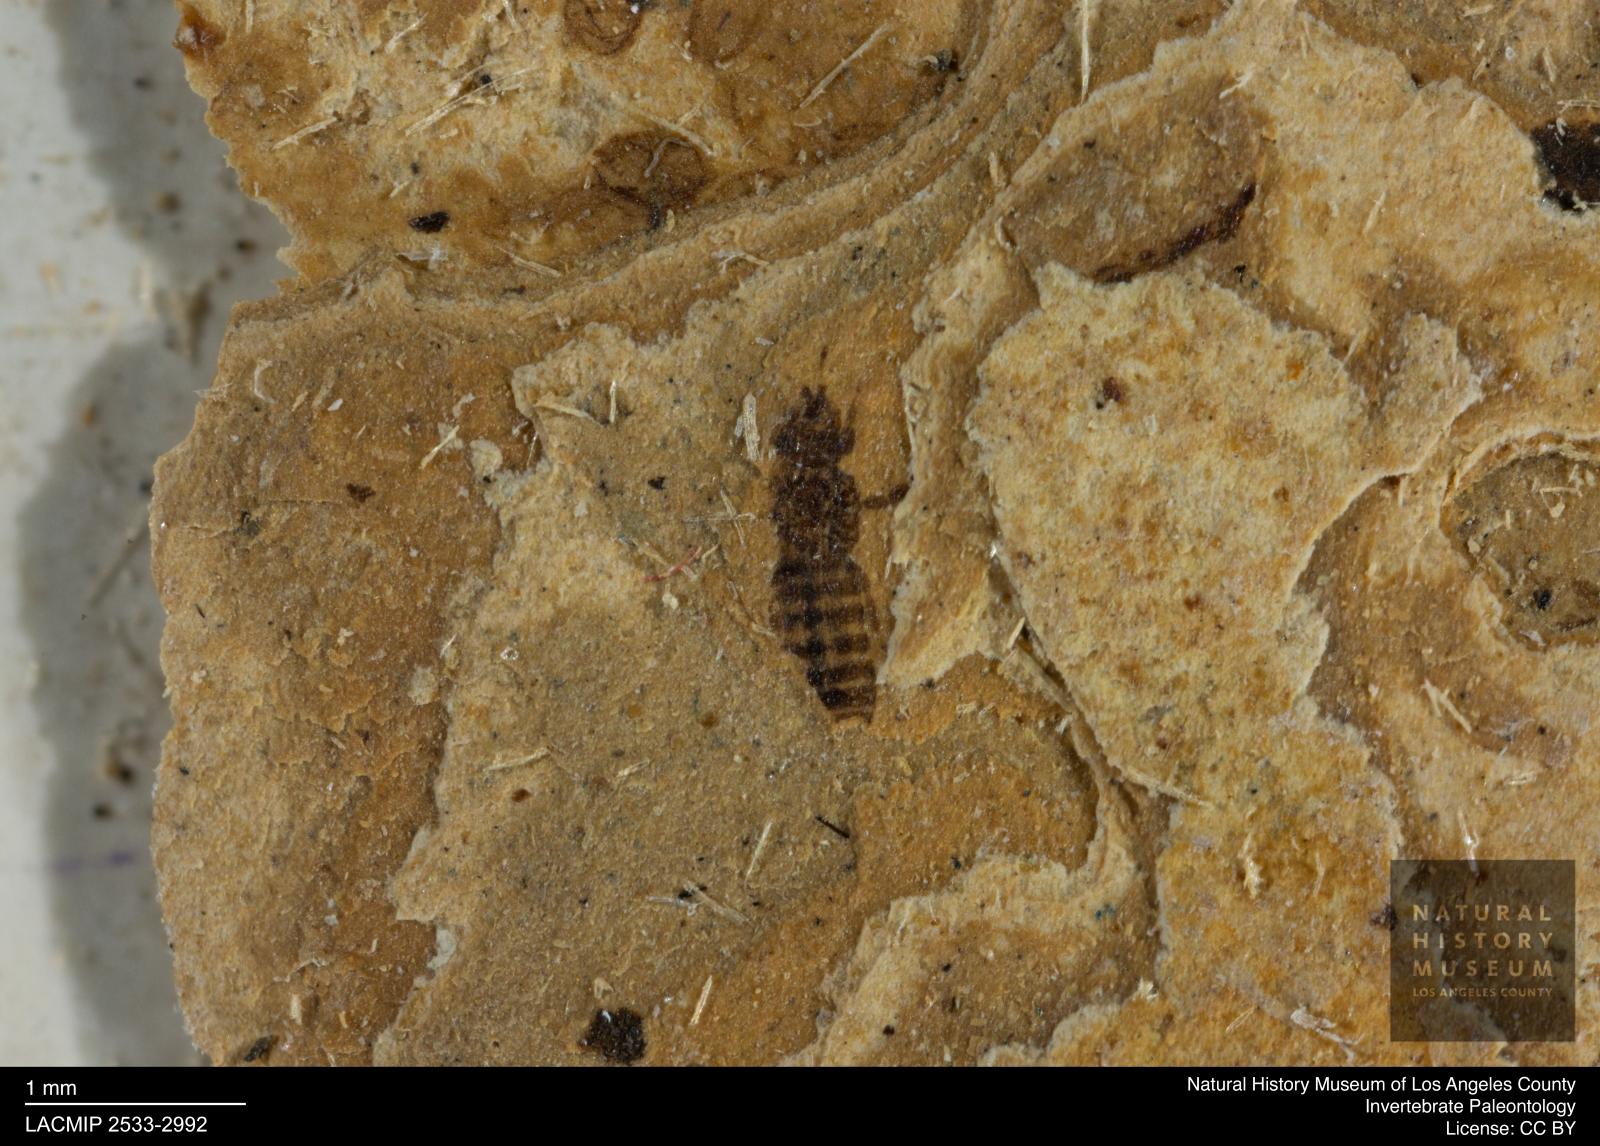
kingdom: Animalia
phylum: Arthropoda
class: Insecta
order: Thysanoptera
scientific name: Thysanoptera
